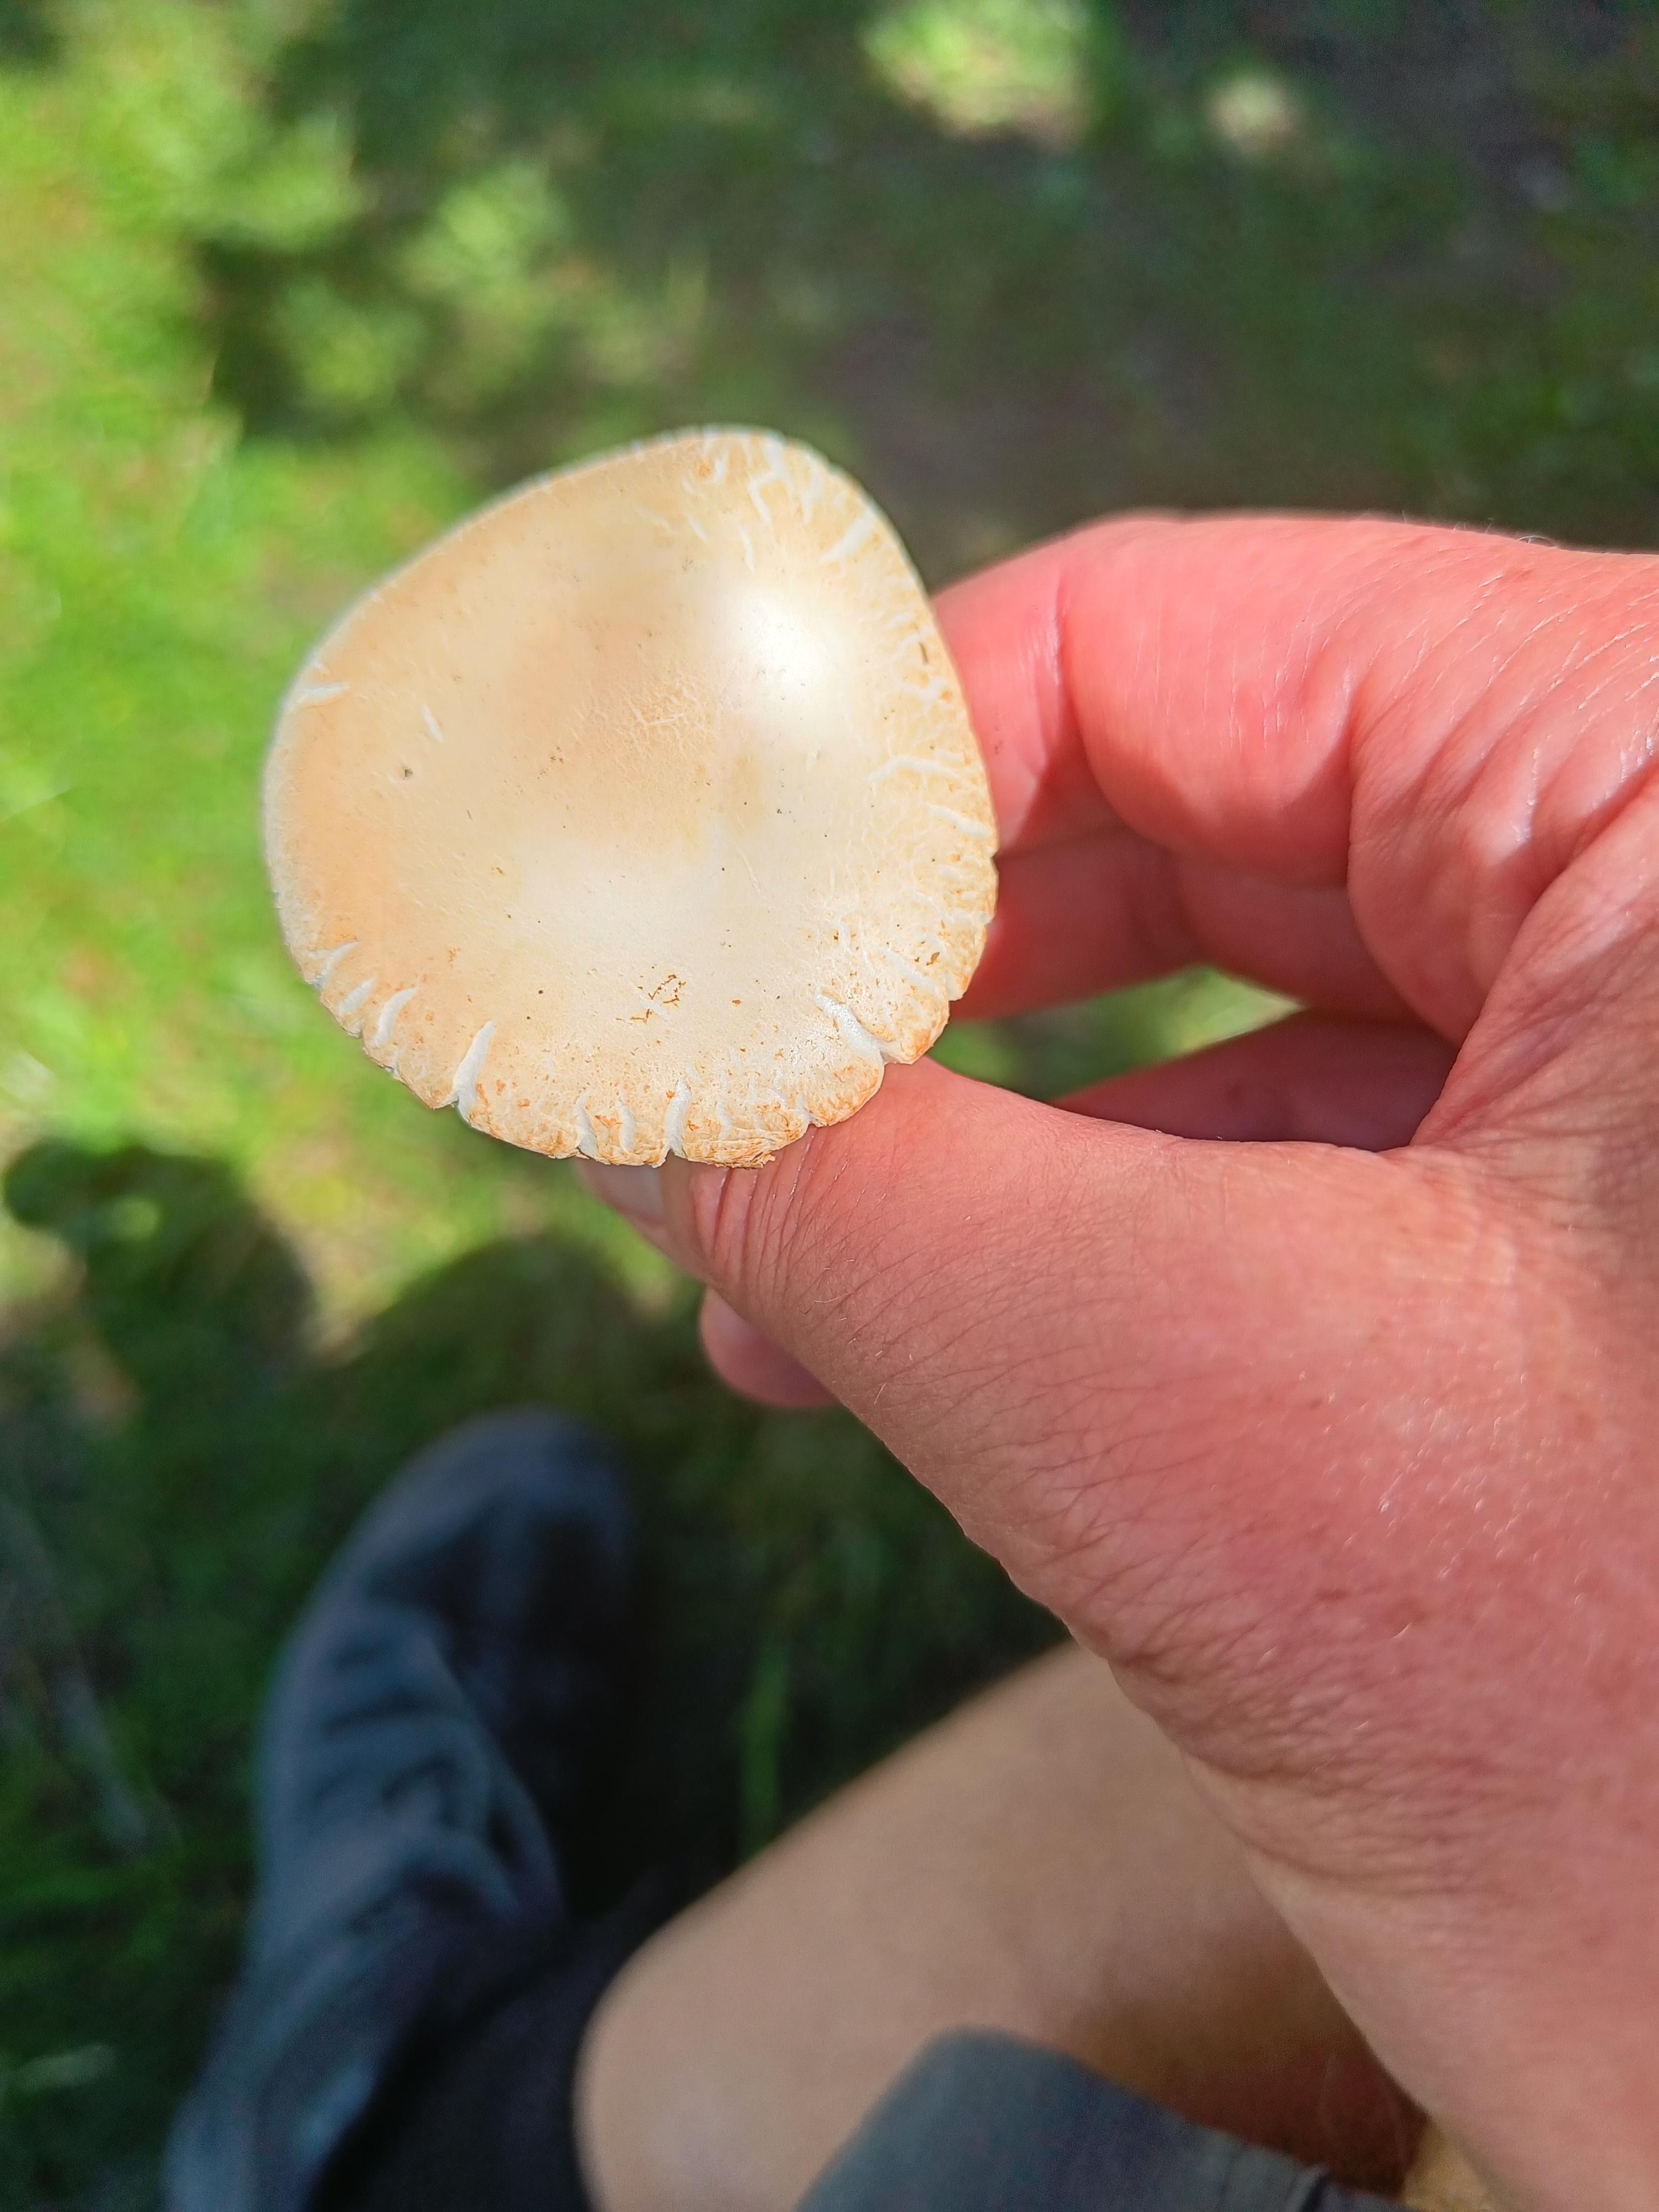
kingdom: Fungi
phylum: Basidiomycota
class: Agaricomycetes
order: Agaricales
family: Strophariaceae
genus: Agrocybe
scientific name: Agrocybe praecox
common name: tidlig agerhat
